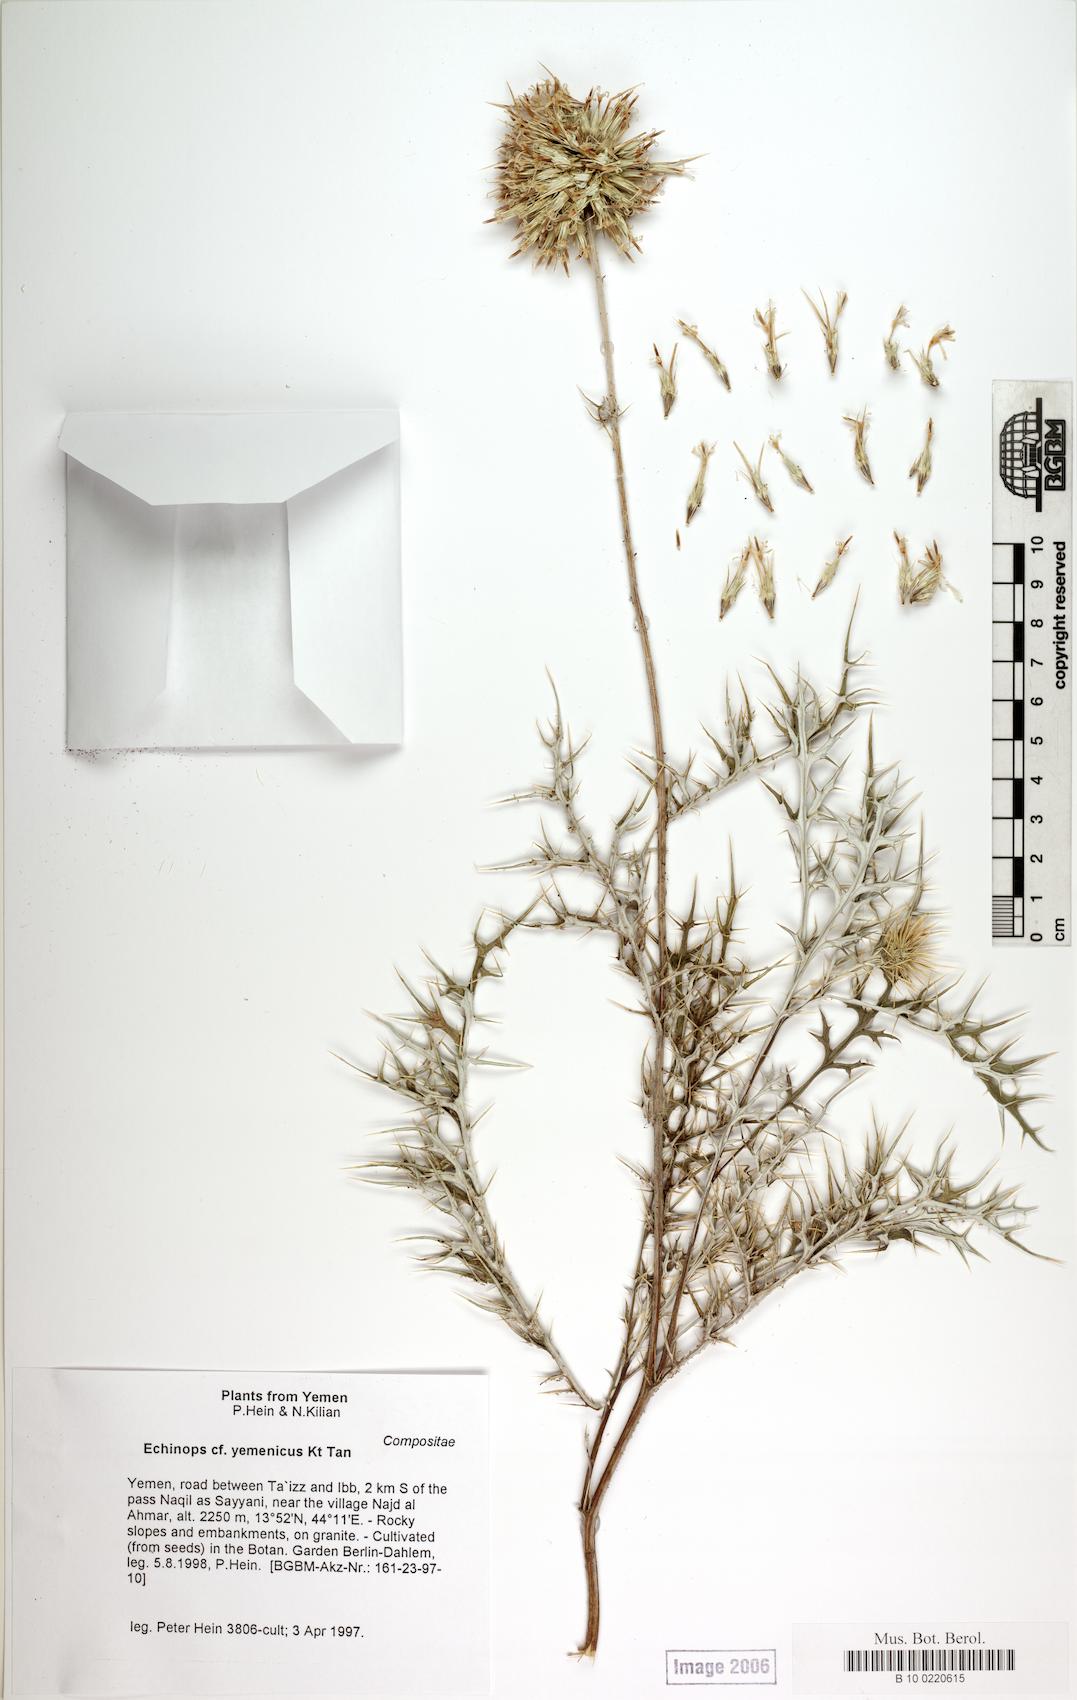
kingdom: Plantae
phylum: Tracheophyta
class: Magnoliopsida
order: Caryophyllales
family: Caryophyllaceae
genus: Stellaria
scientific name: Stellaria apetala
